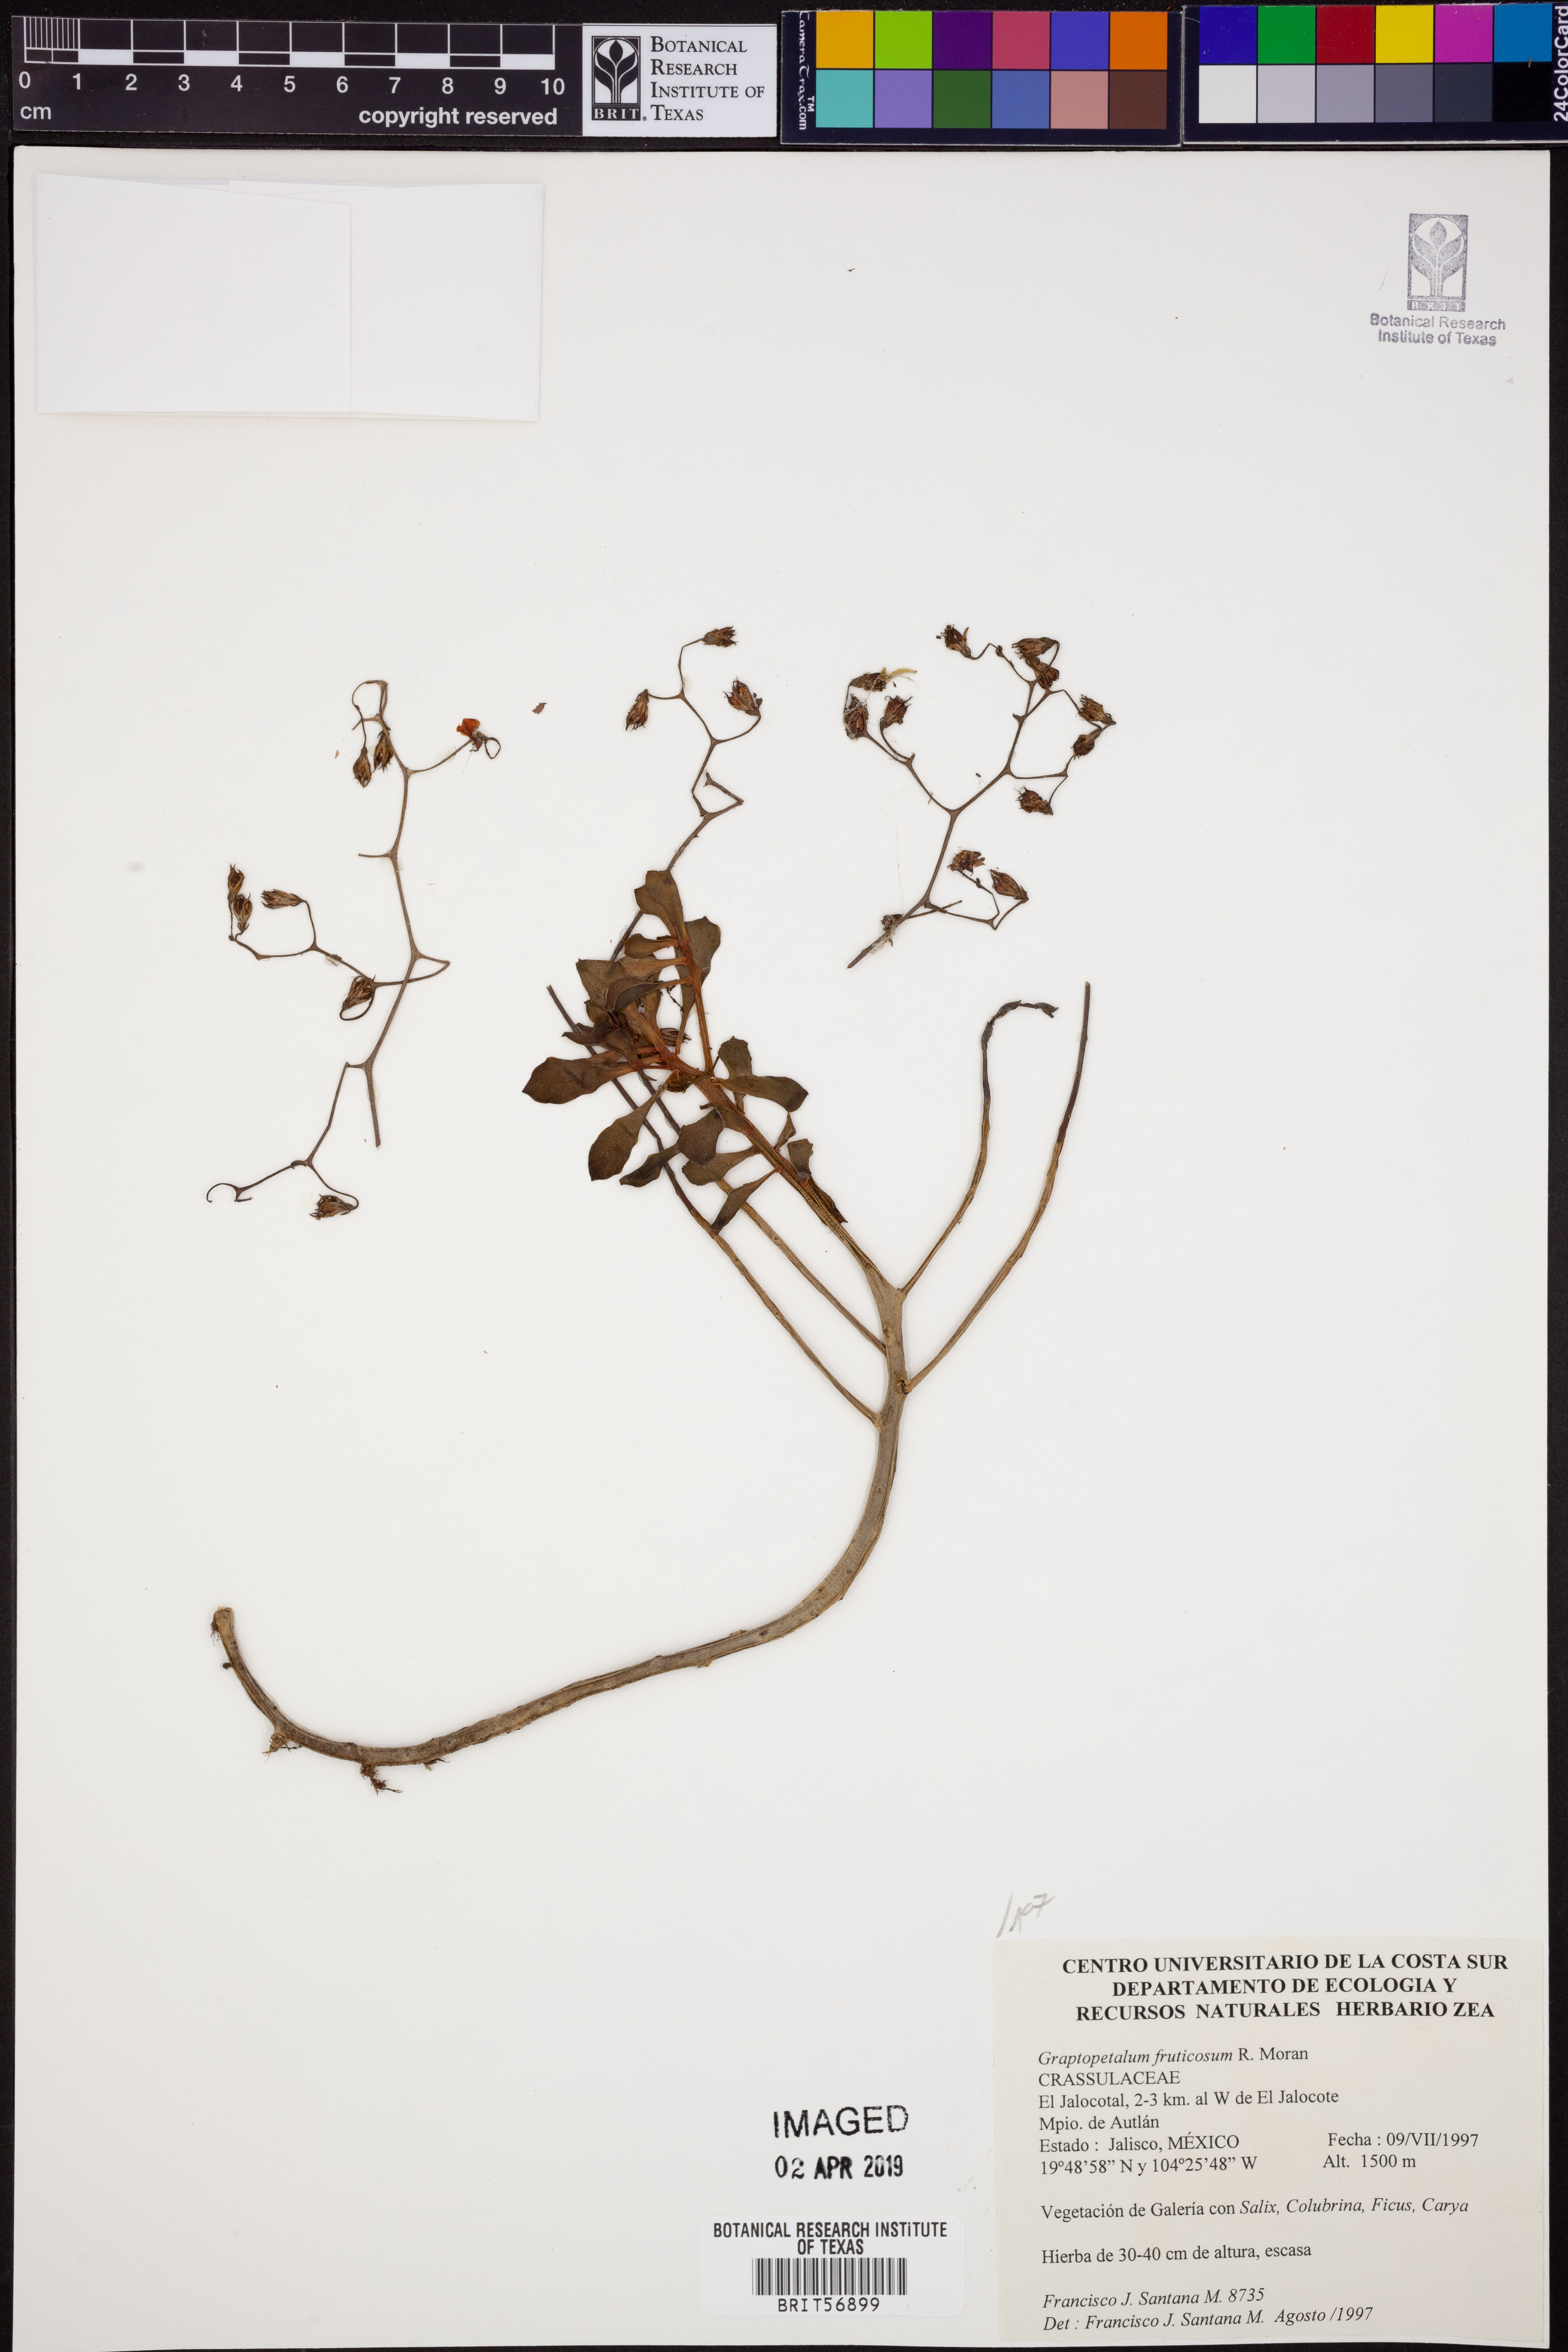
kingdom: Plantae
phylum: Tracheophyta
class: Magnoliopsida
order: Saxifragales
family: Crassulaceae
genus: Graptopetalum
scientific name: Graptopetalum fruticosum
